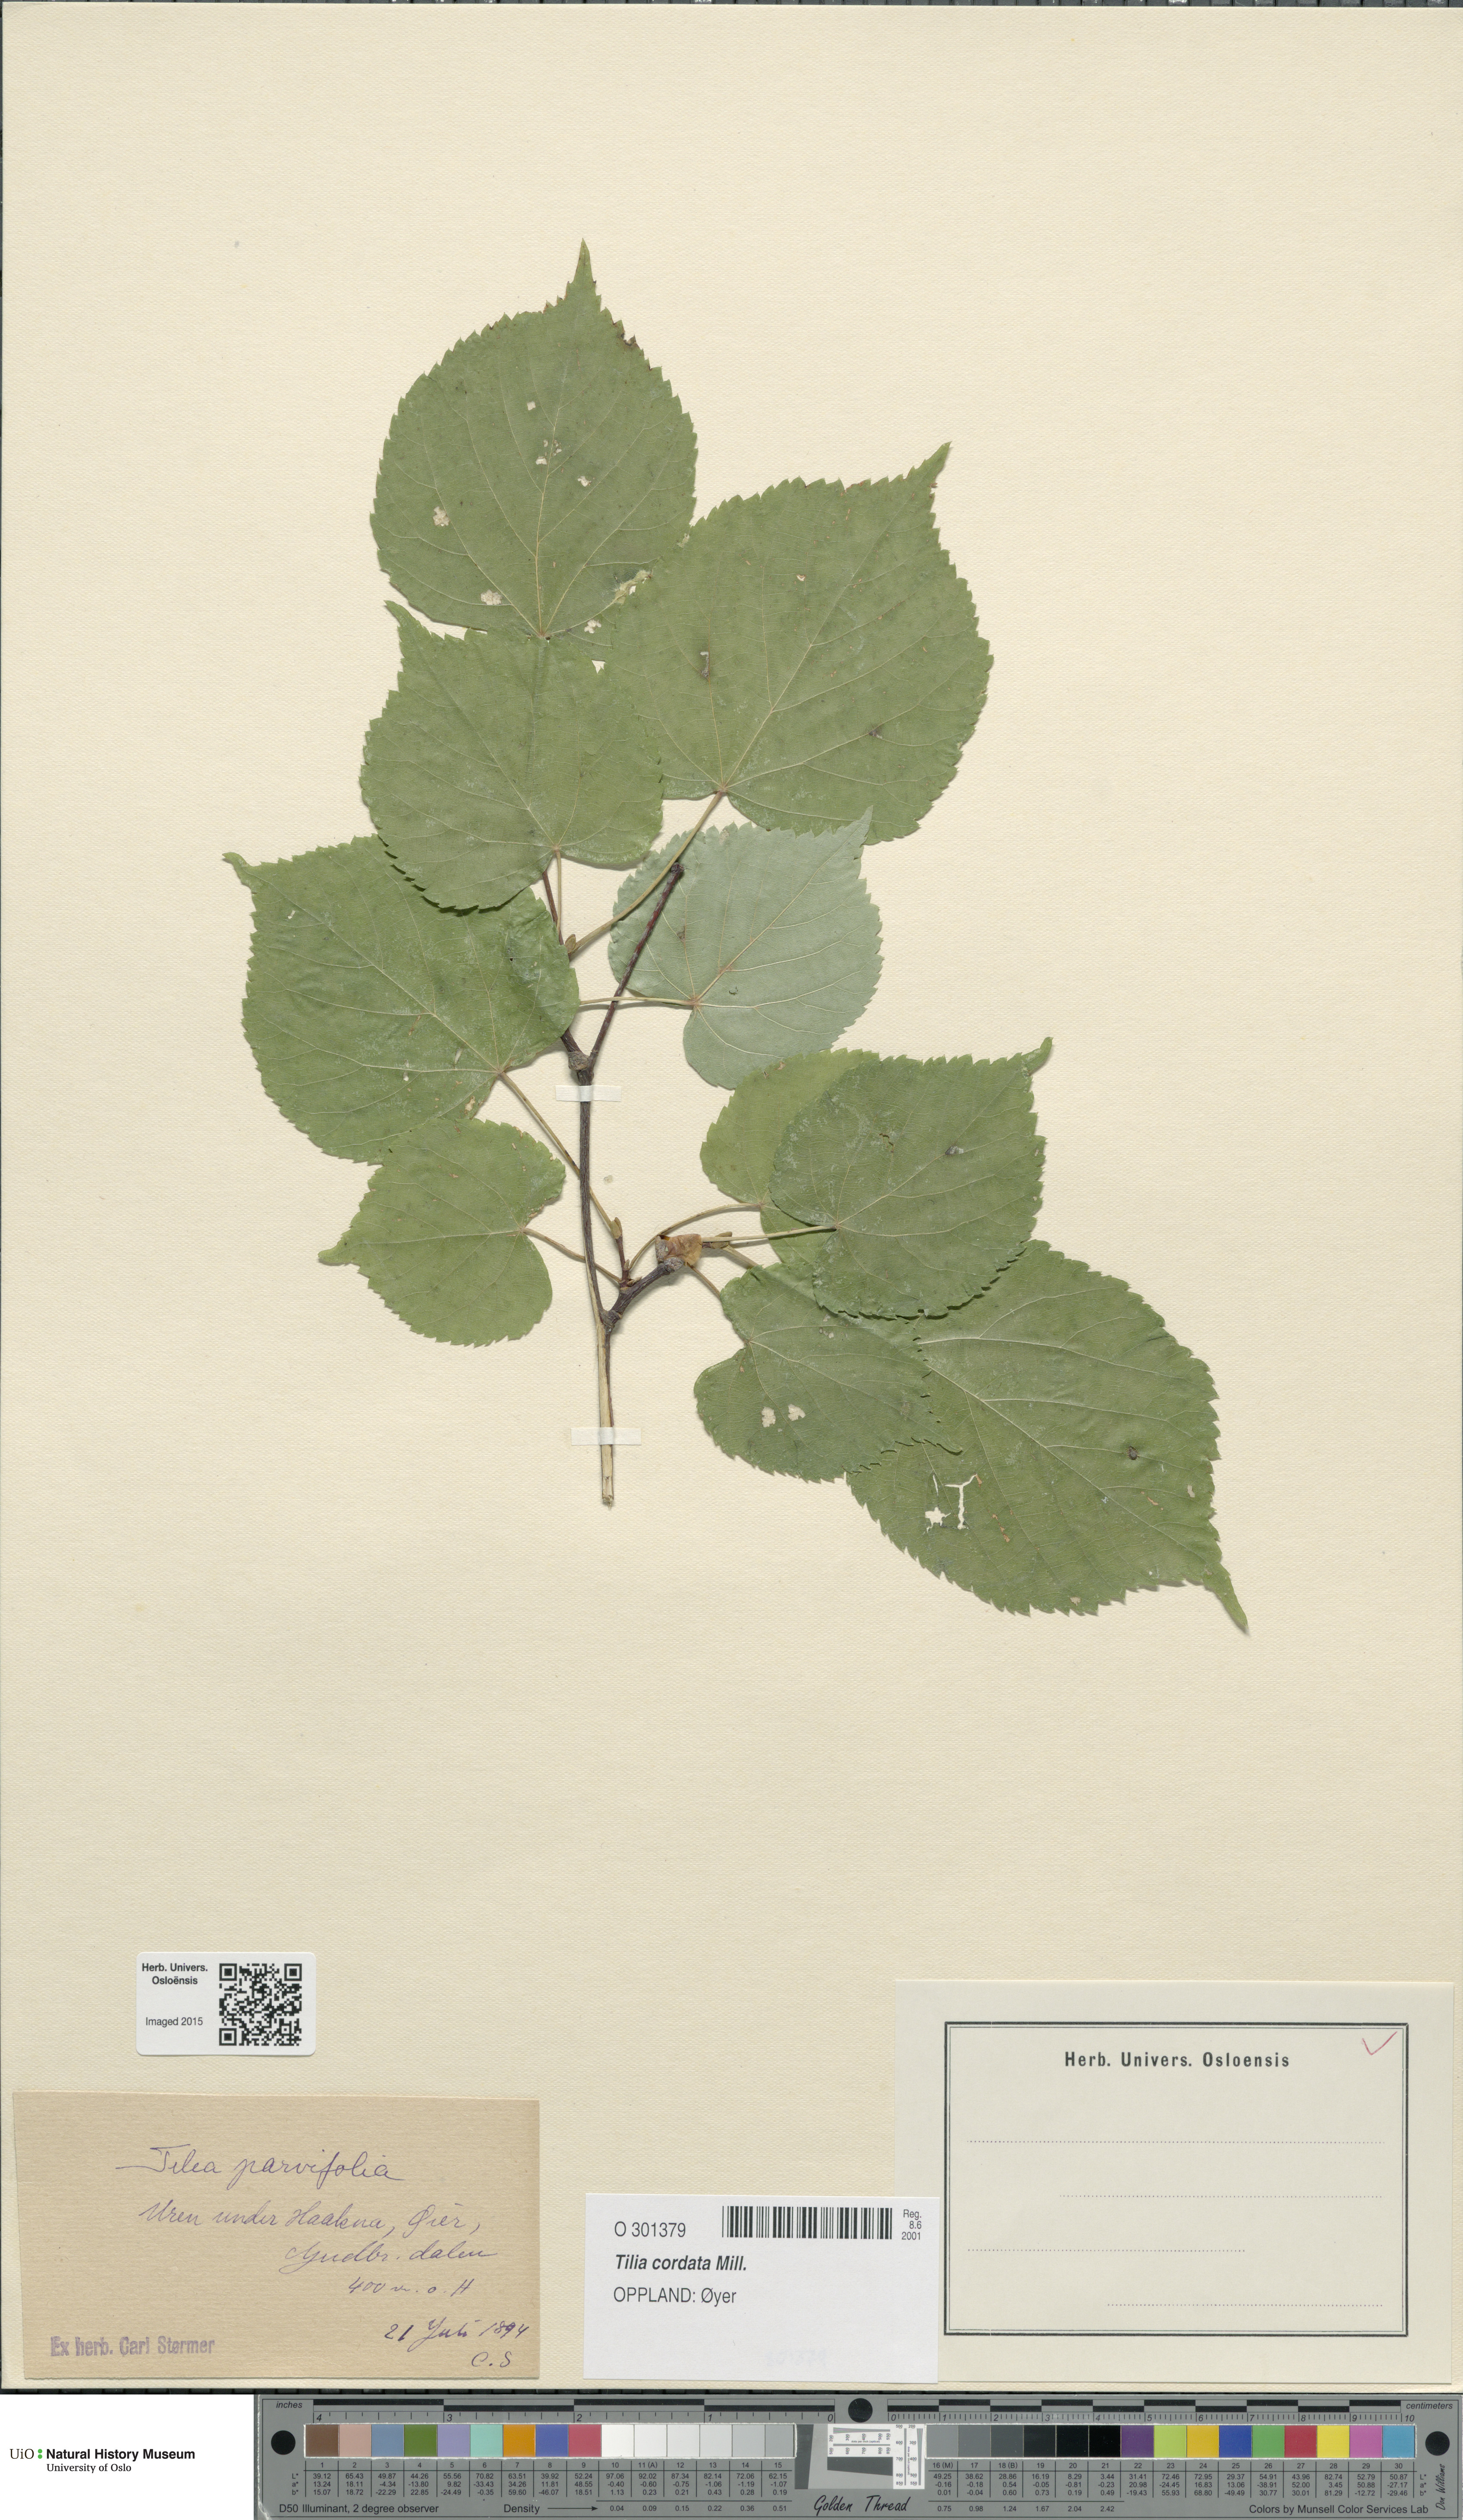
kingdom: Plantae
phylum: Tracheophyta
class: Magnoliopsida
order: Malvales
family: Malvaceae
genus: Tilia
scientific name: Tilia cordata
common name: Small-leaved lime
